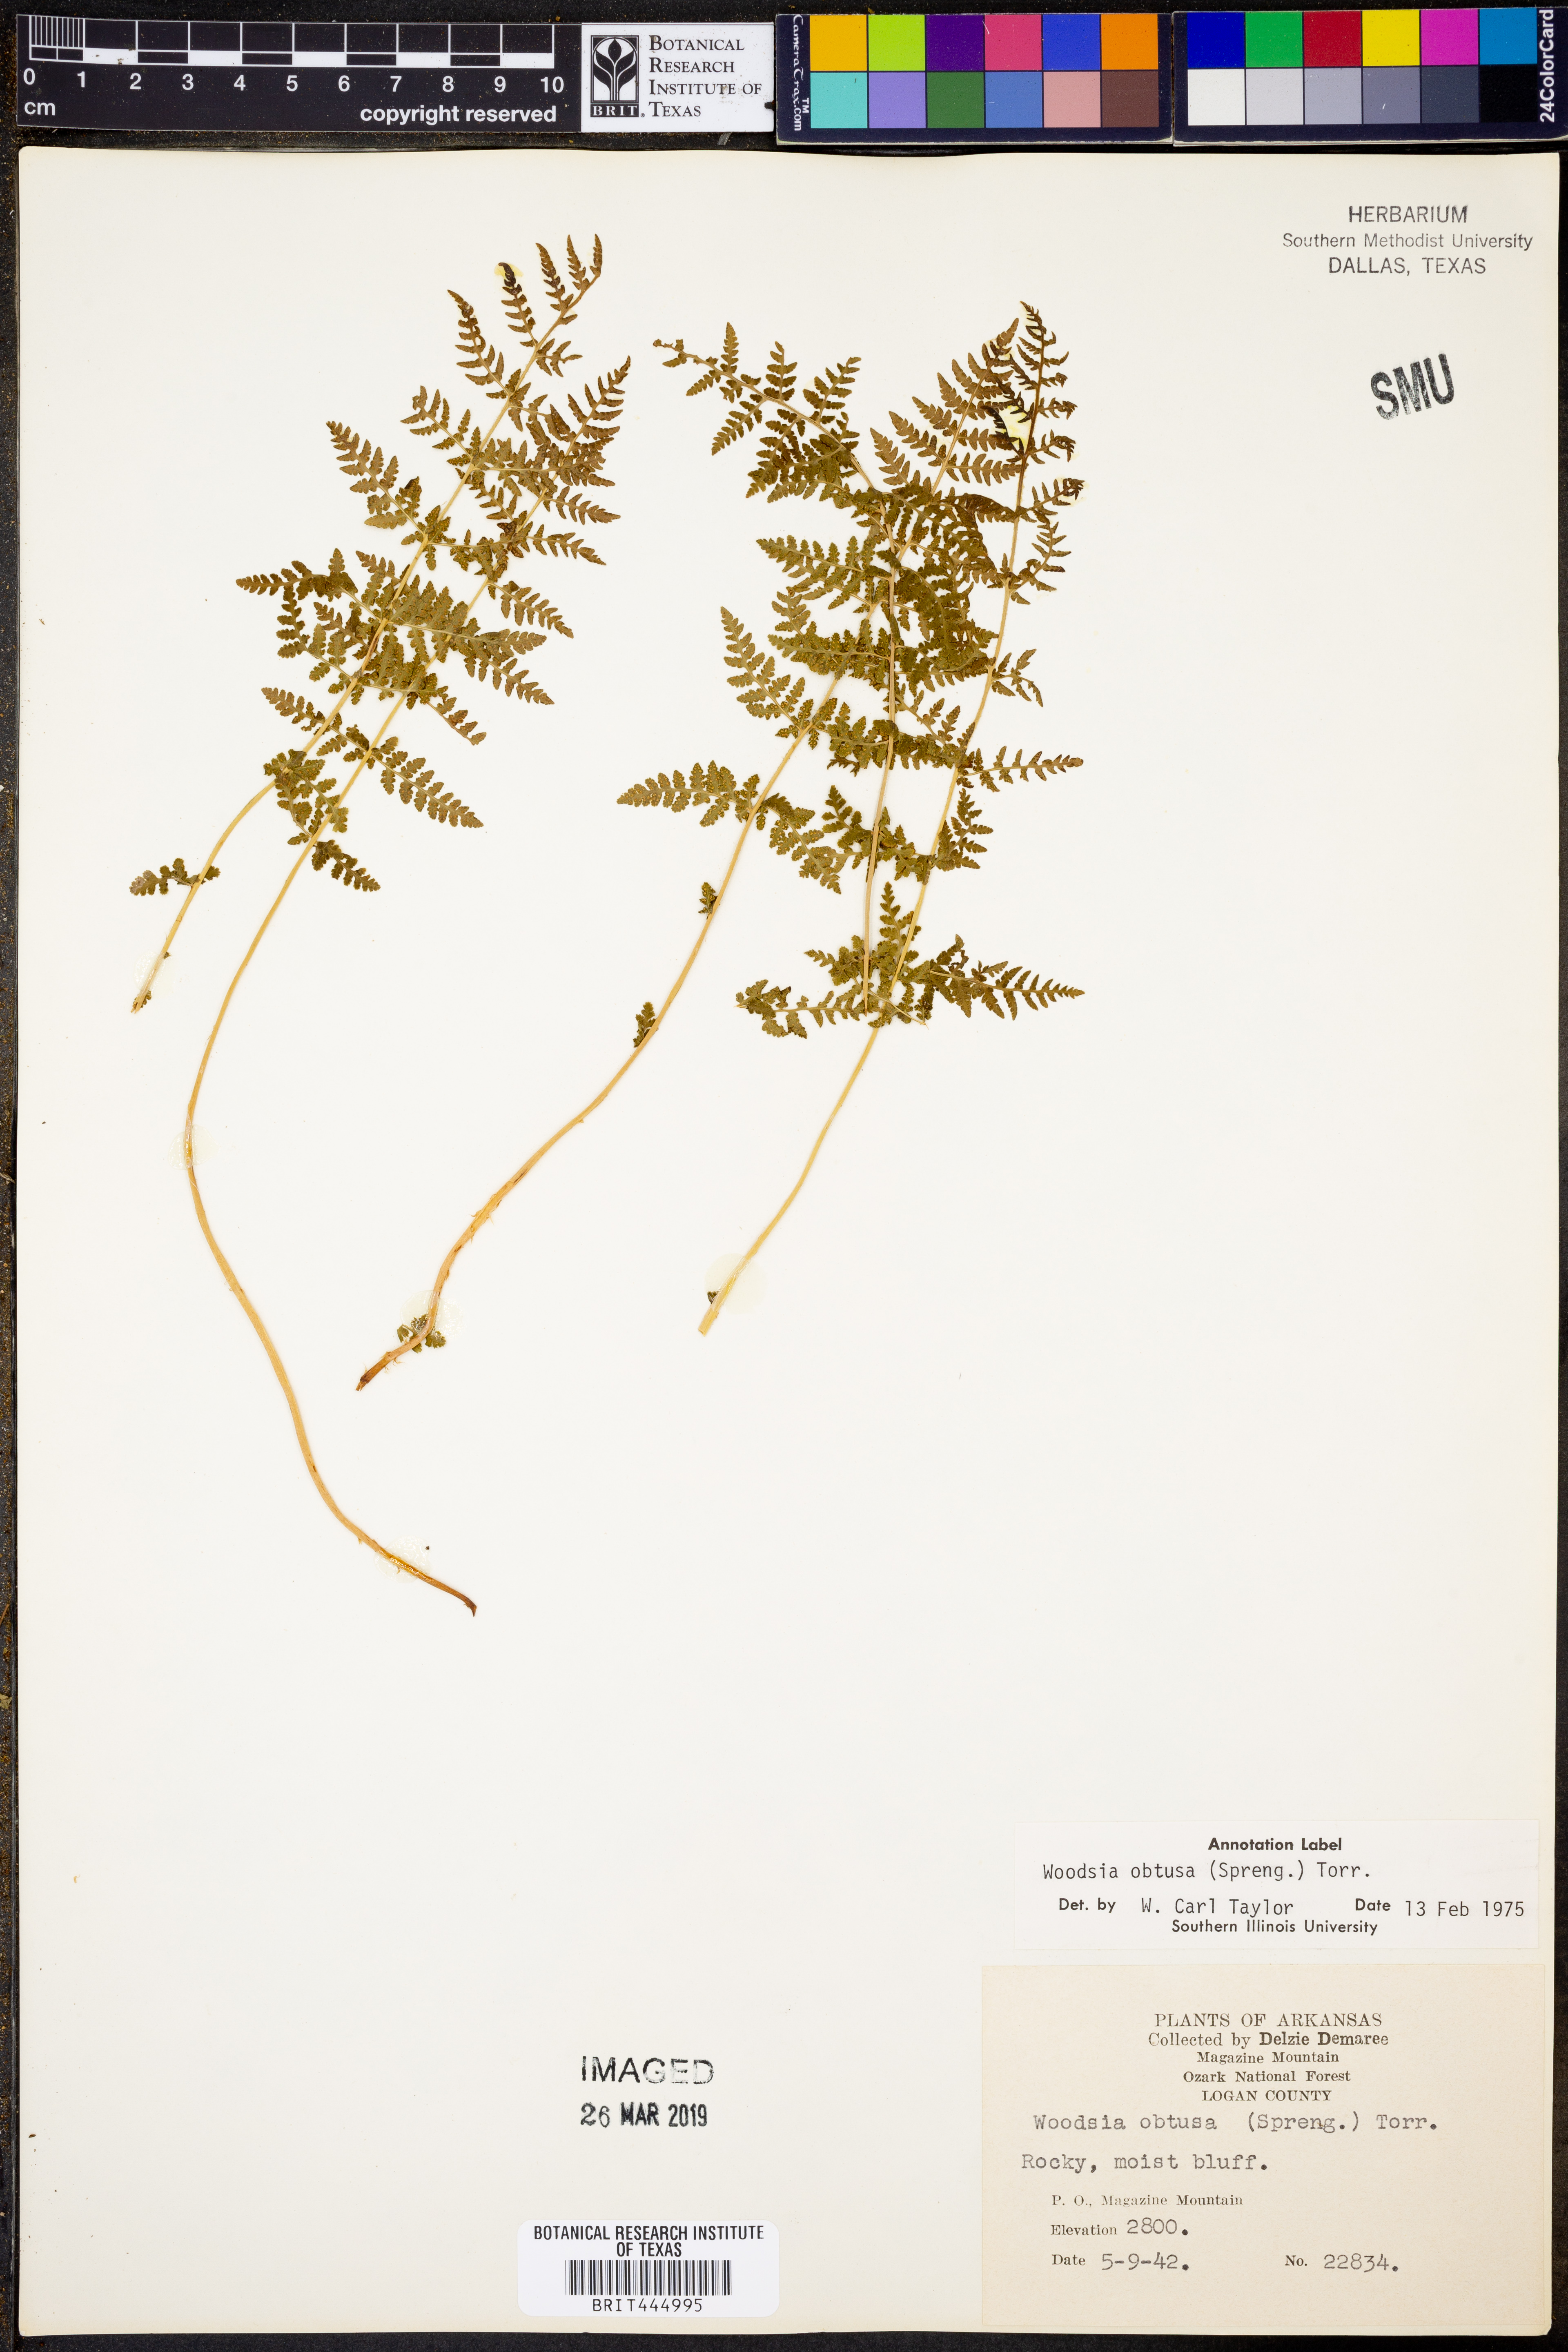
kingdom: Plantae
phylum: Tracheophyta
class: Polypodiopsida
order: Polypodiales
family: Woodsiaceae
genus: Physematium
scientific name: Physematium obtusum
